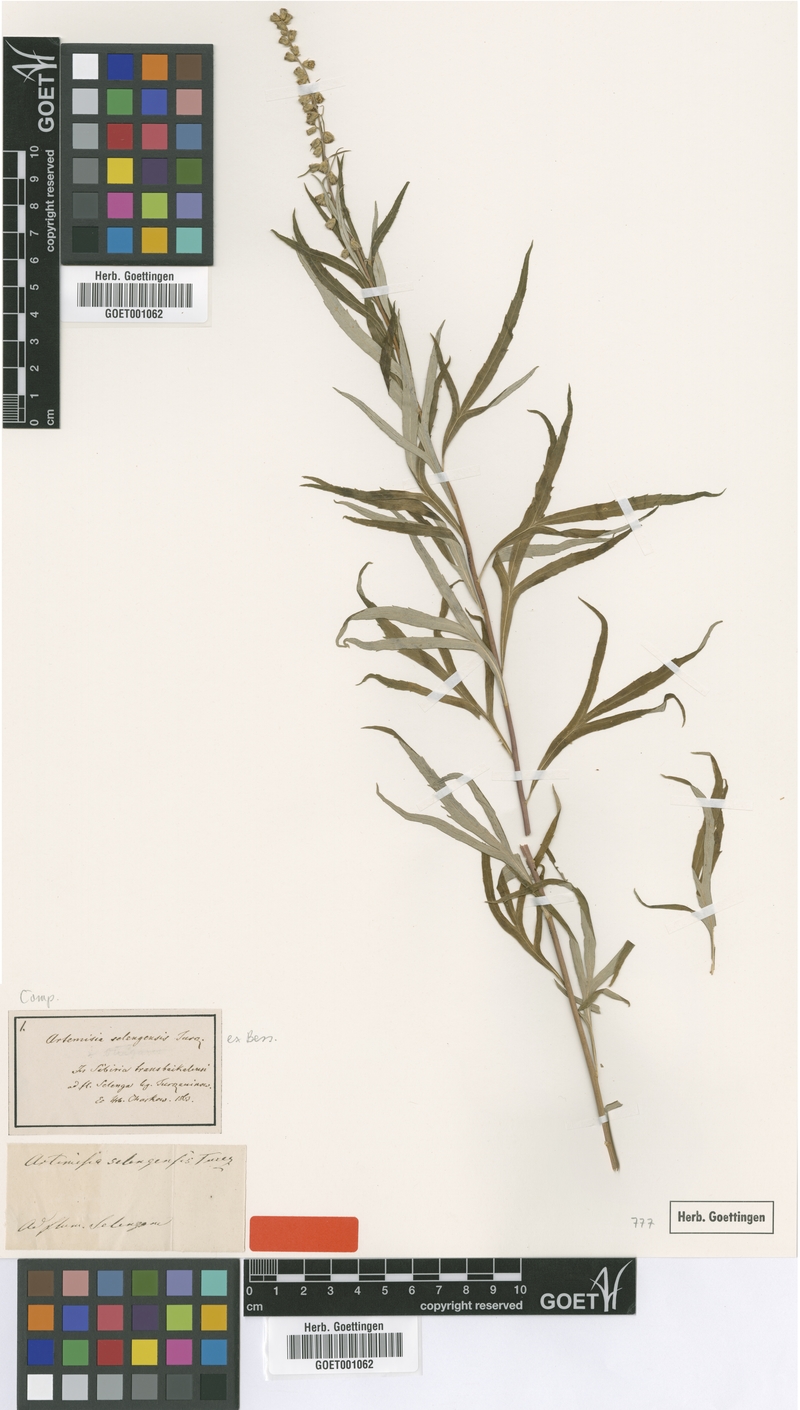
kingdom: Plantae
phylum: Tracheophyta
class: Magnoliopsida
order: Asterales
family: Asteraceae
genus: Artemisia
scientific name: Artemisia selengensis
